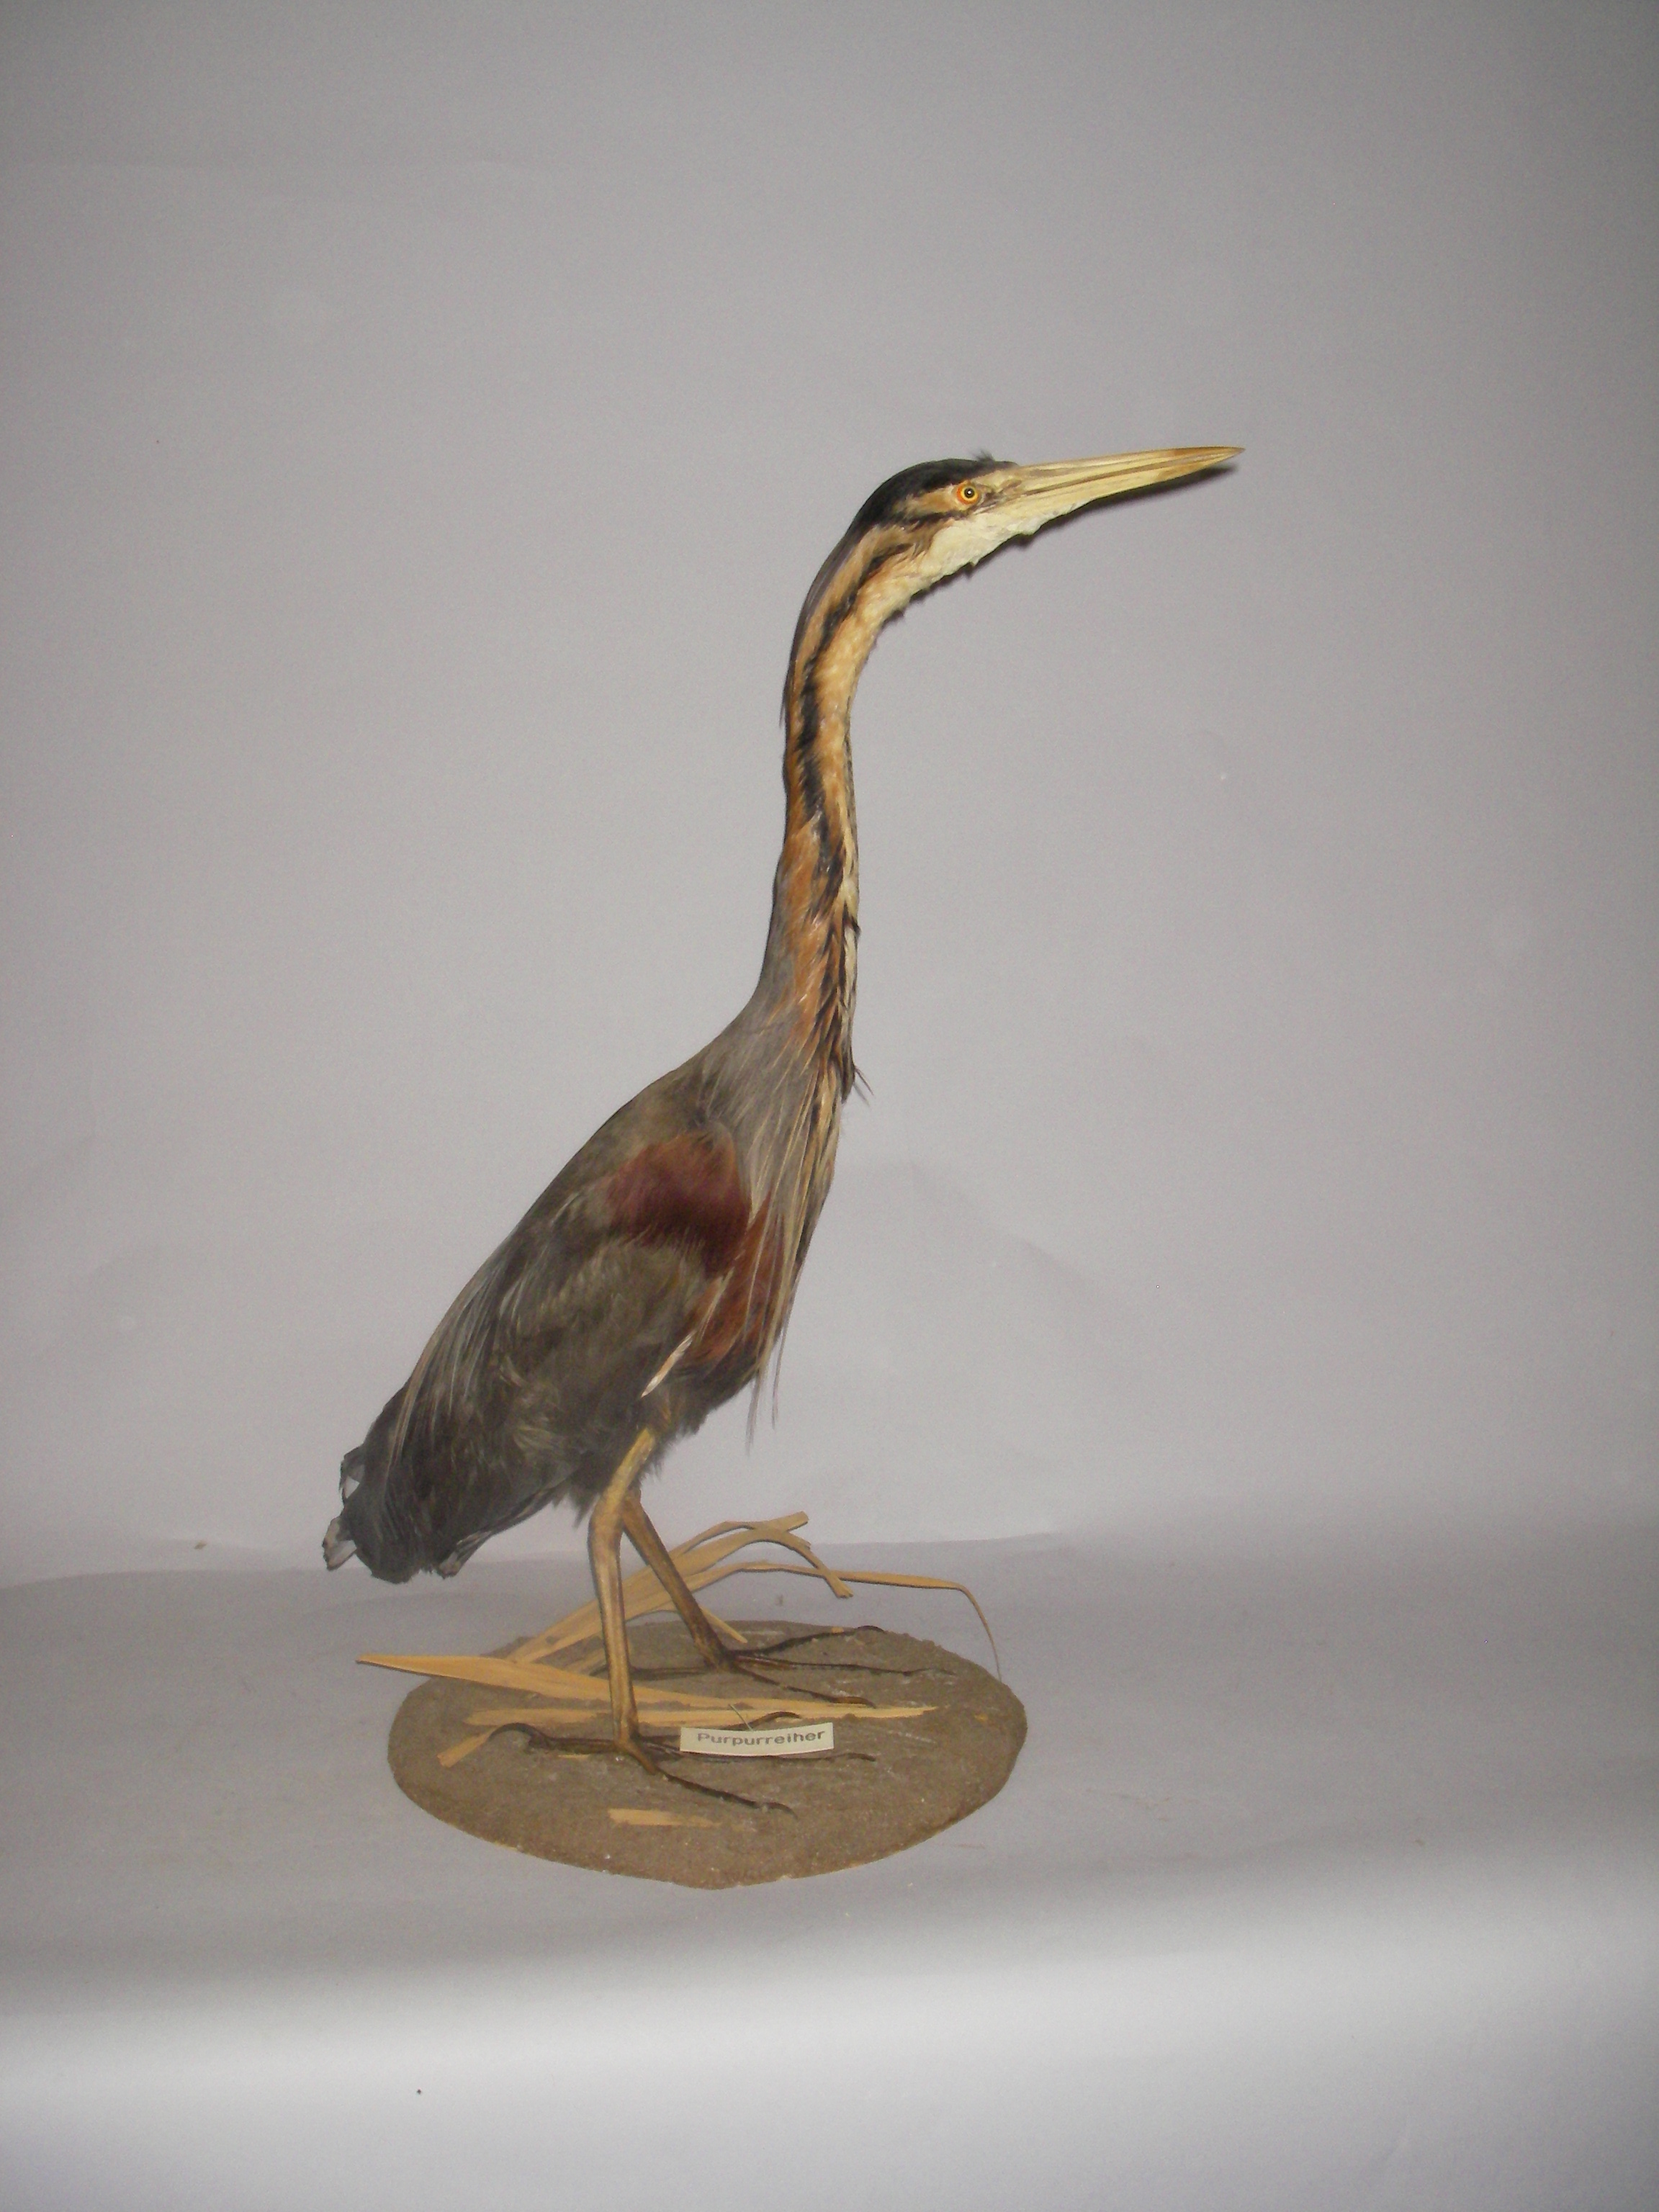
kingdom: Animalia
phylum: Chordata
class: Aves
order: Pelecaniformes
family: Ardeidae
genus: Ardea
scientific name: Ardea purpurea
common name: Purple heron
